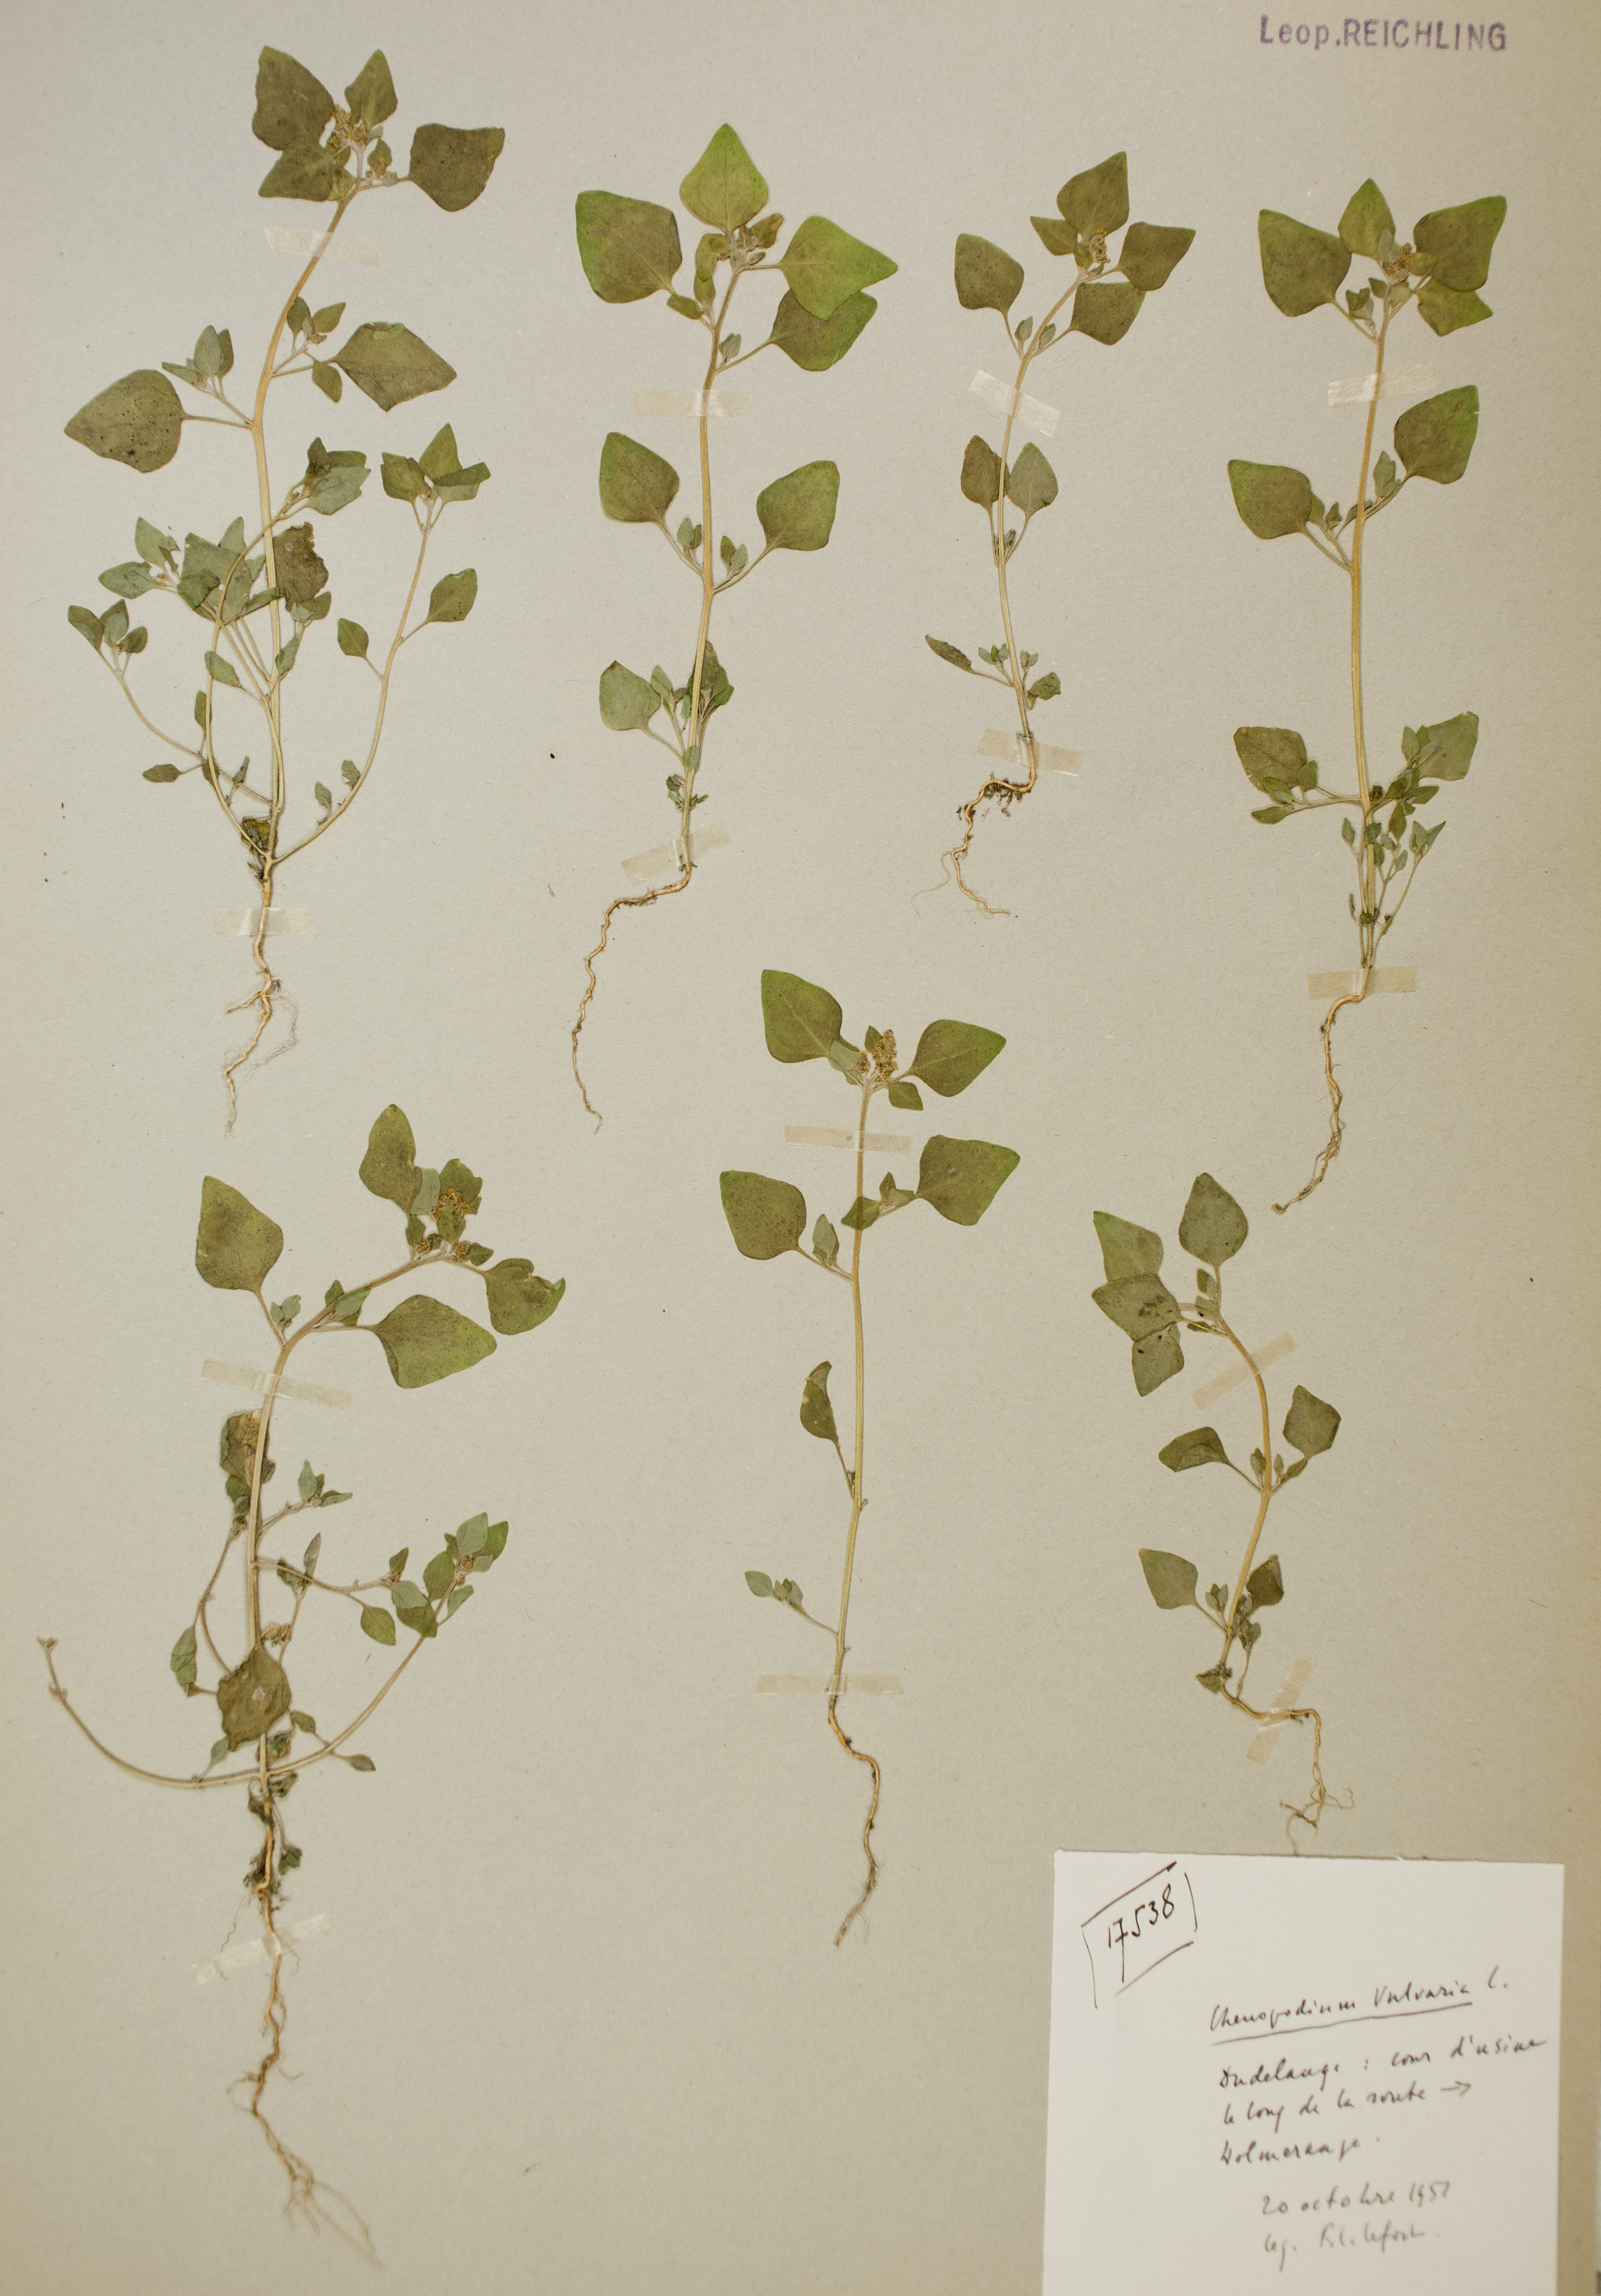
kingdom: Plantae
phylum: Tracheophyta
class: Magnoliopsida
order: Caryophyllales
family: Amaranthaceae
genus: Chenopodium
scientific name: Chenopodium vulvaria
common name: Stinking goosefoot
